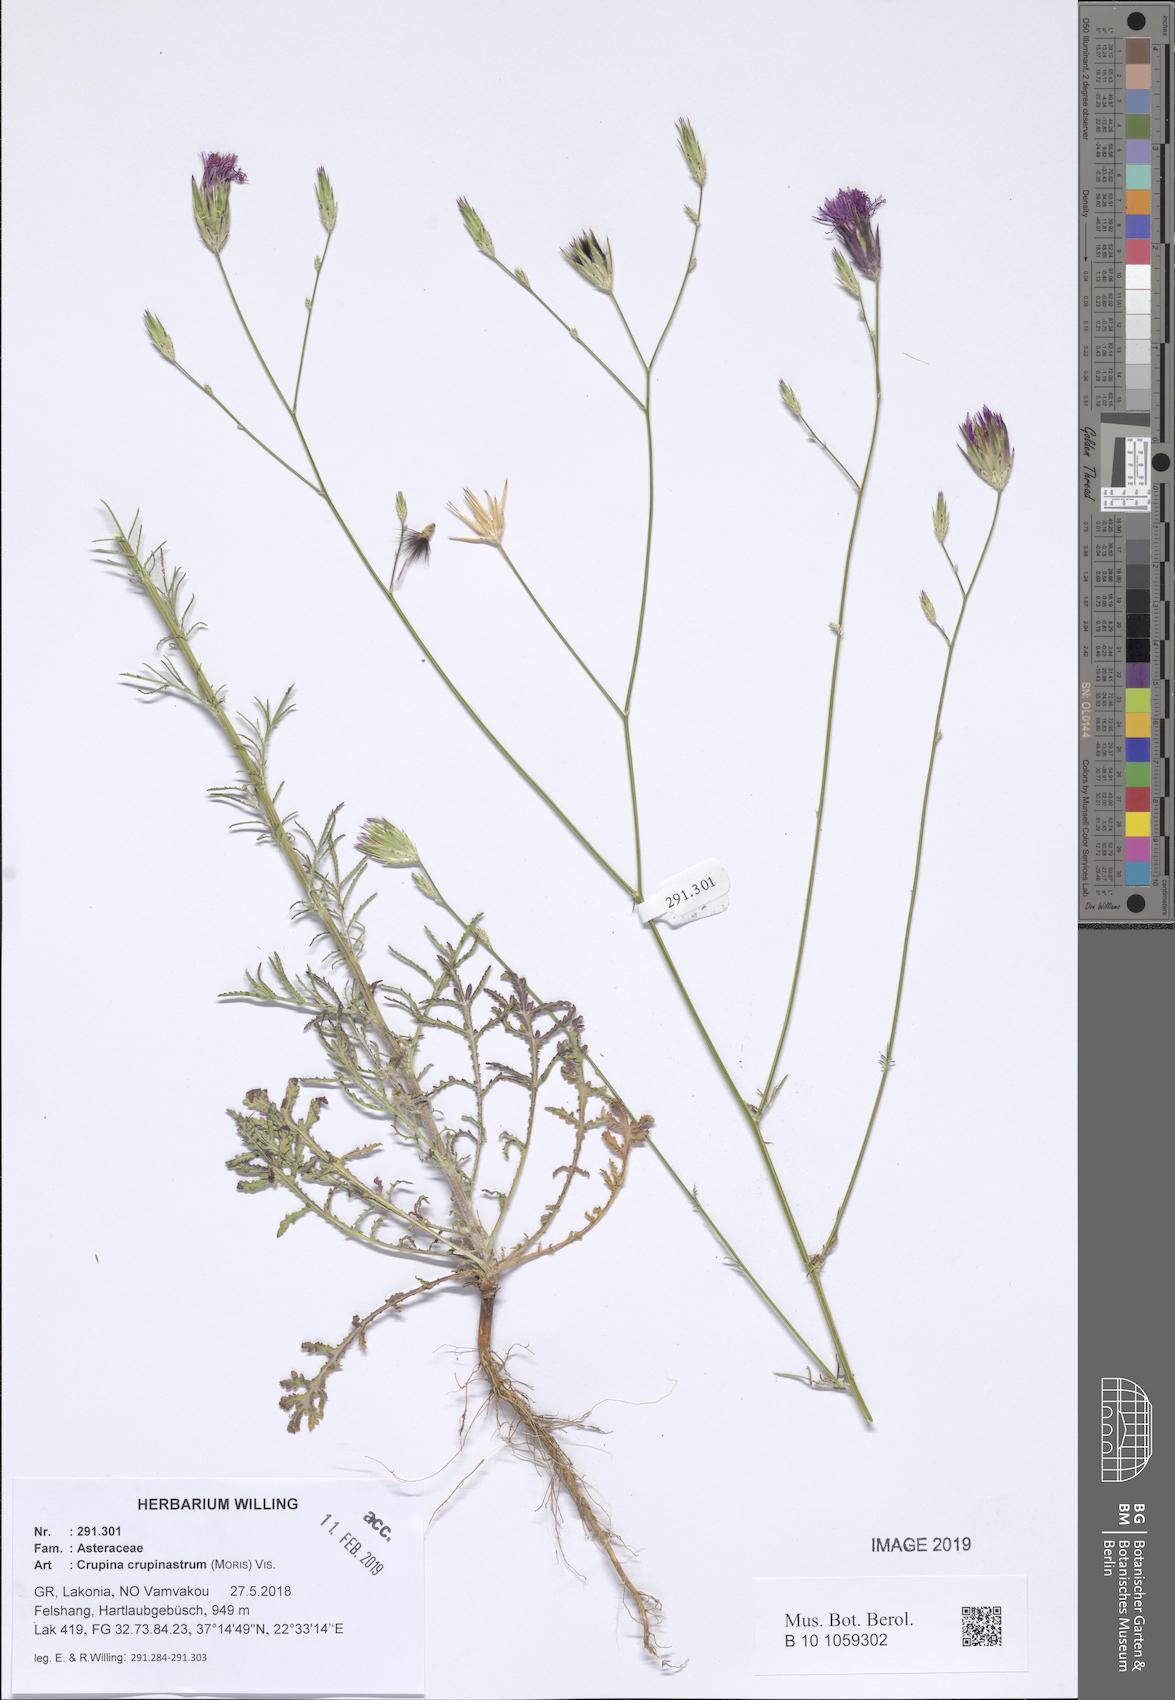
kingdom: Plantae
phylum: Tracheophyta
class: Magnoliopsida
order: Asterales
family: Asteraceae
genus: Crupina
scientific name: Crupina crupinastrum
